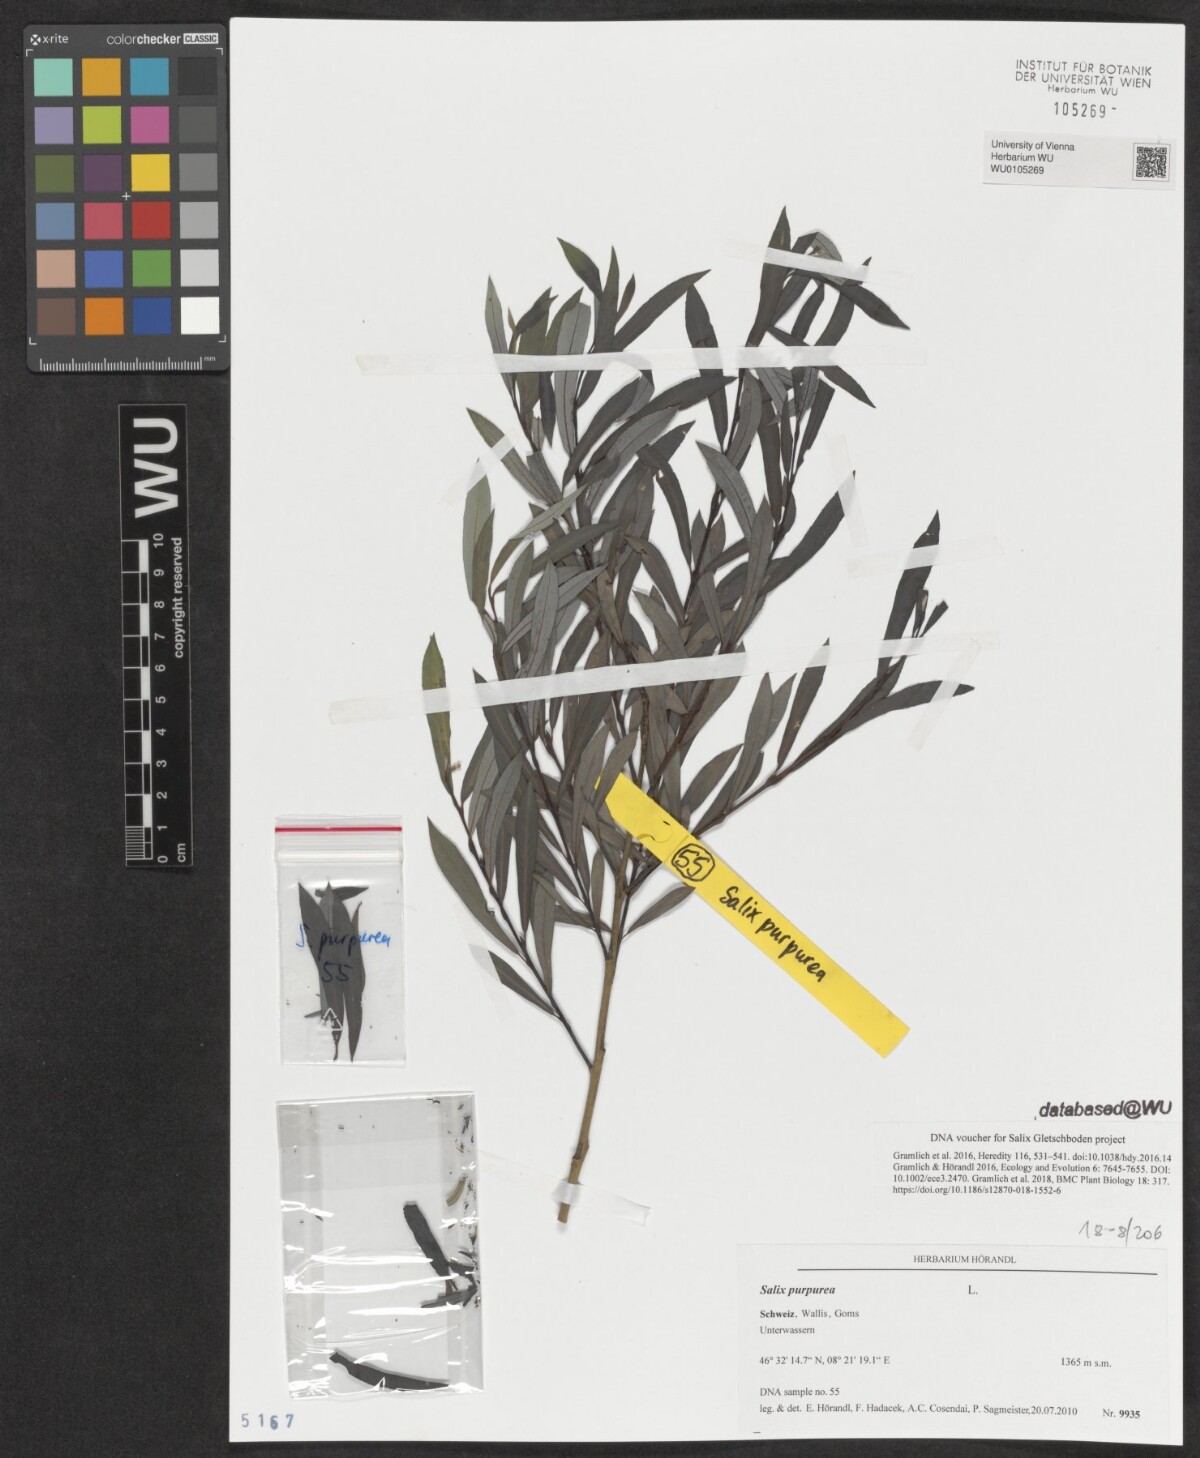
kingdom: Plantae
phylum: Tracheophyta
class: Magnoliopsida
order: Malpighiales
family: Salicaceae
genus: Salix
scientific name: Salix purpurea
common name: Purple willow
